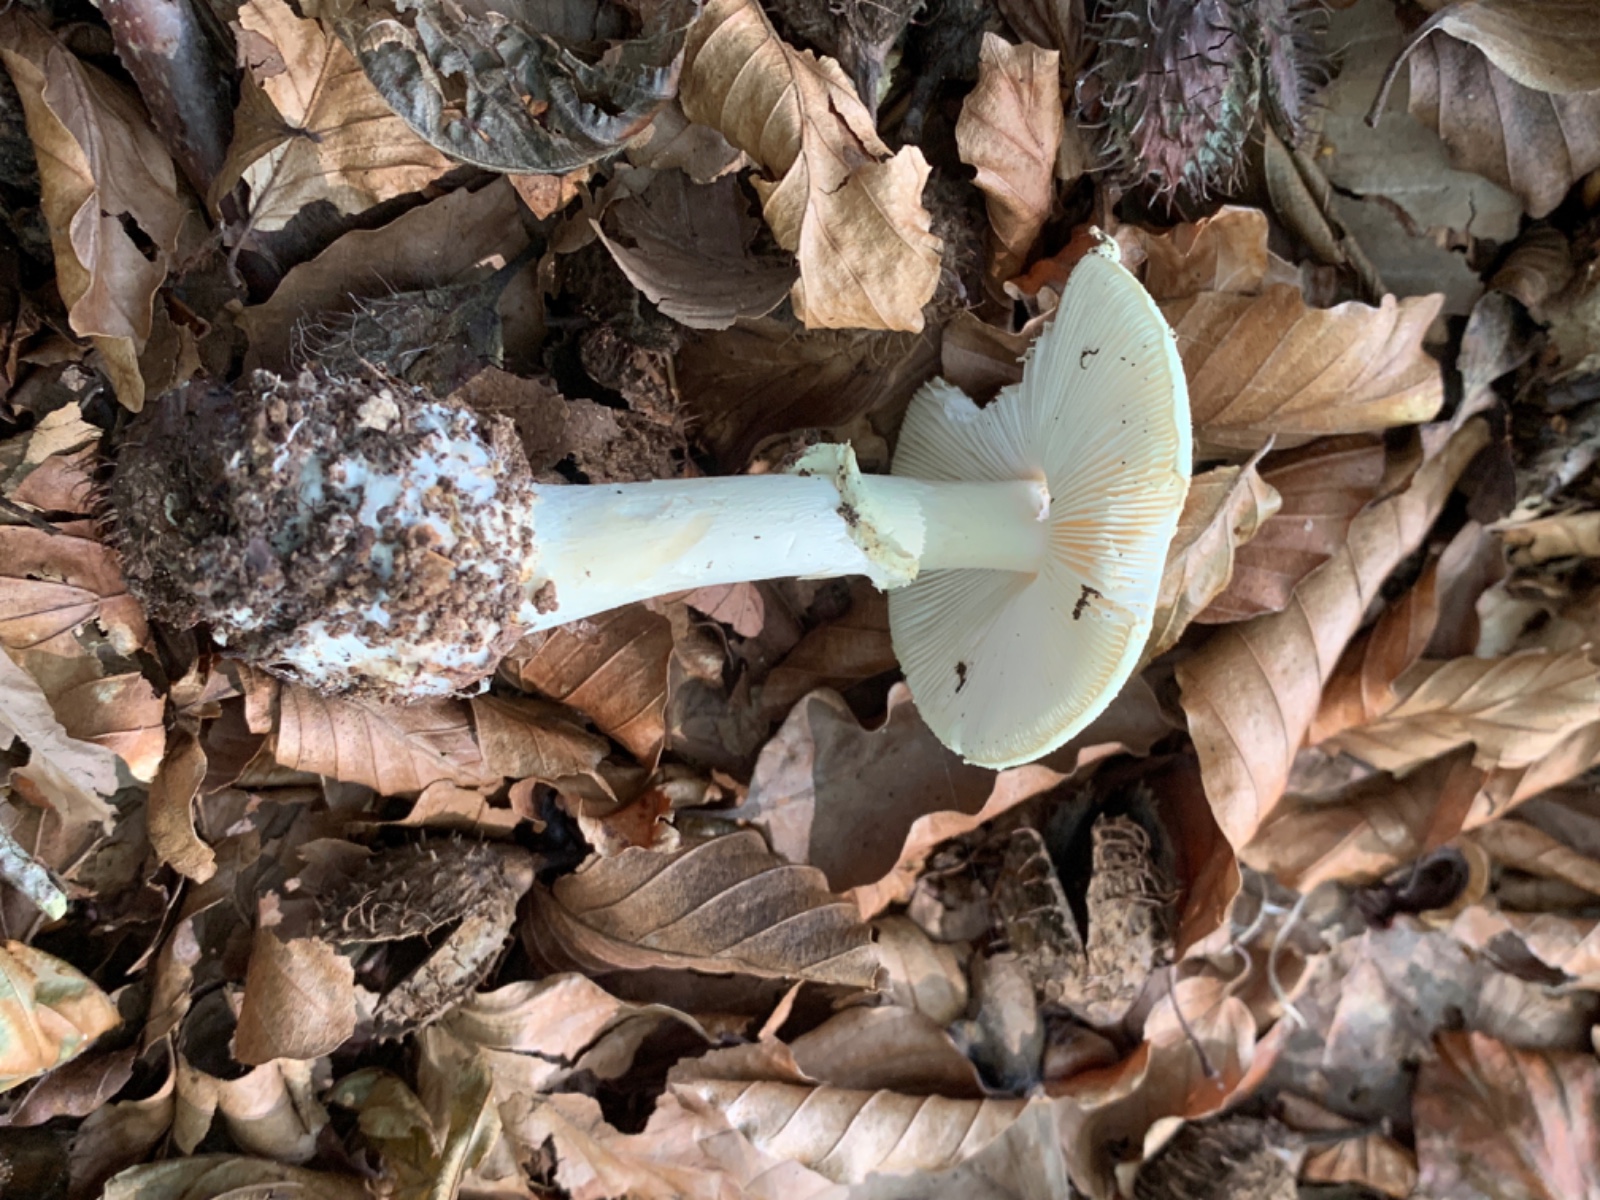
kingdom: Fungi
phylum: Basidiomycota
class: Agaricomycetes
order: Agaricales
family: Amanitaceae
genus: Amanita
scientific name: Amanita citrina
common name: kugleknoldet fluesvamp
